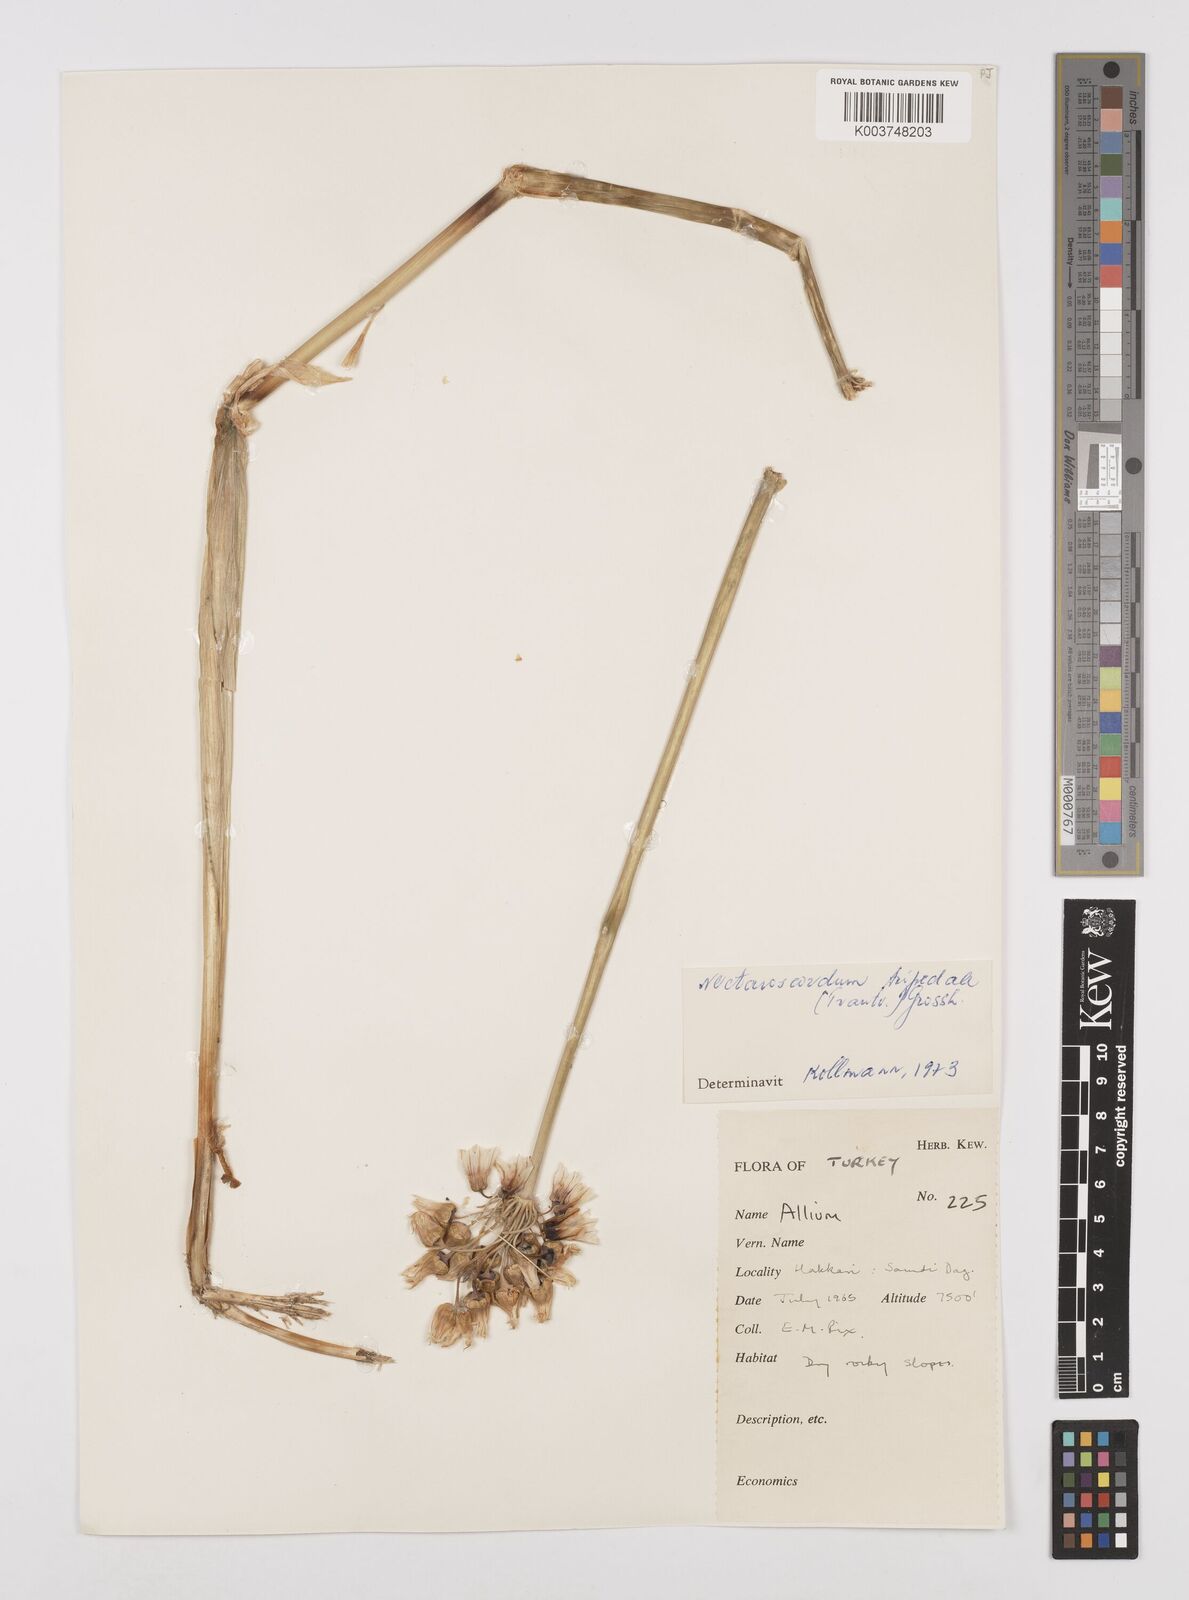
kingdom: Plantae
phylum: Tracheophyta
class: Liliopsida
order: Asparagales
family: Amaryllidaceae
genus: Allium
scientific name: Allium tripedale
